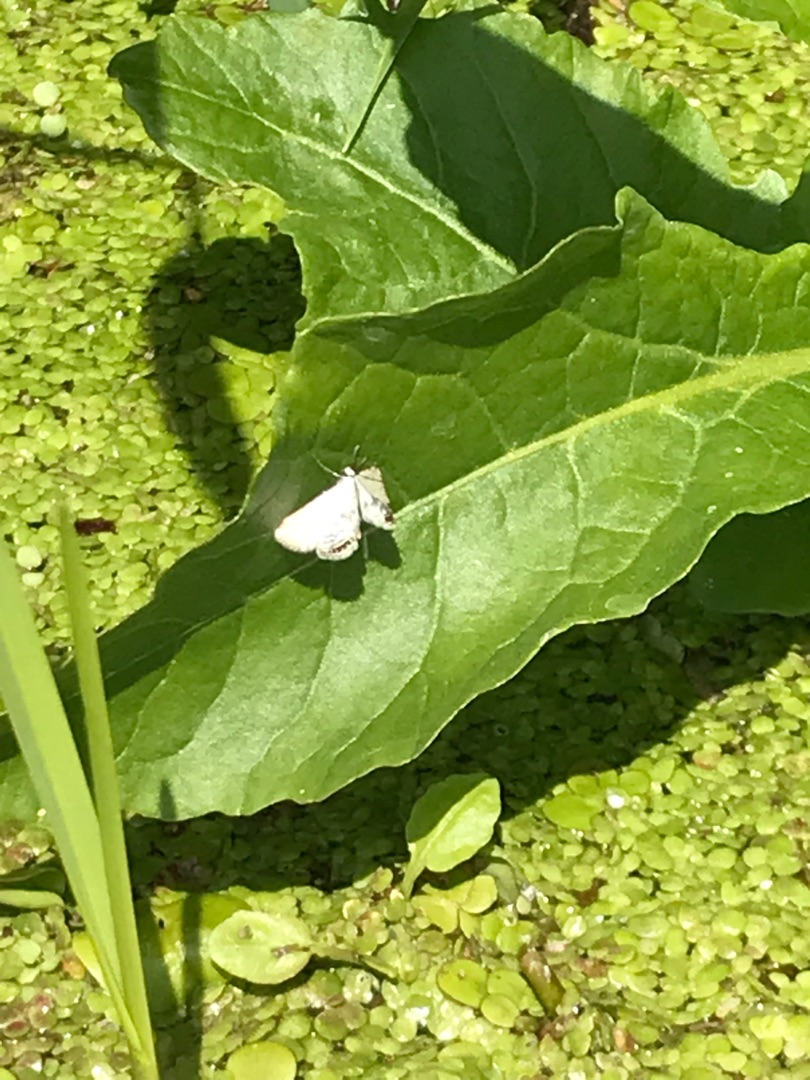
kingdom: Animalia
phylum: Arthropoda
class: Insecta
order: Lepidoptera
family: Crambidae
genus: Cataclysta
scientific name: Cataclysta lemnata
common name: Andemadhalvmøl
